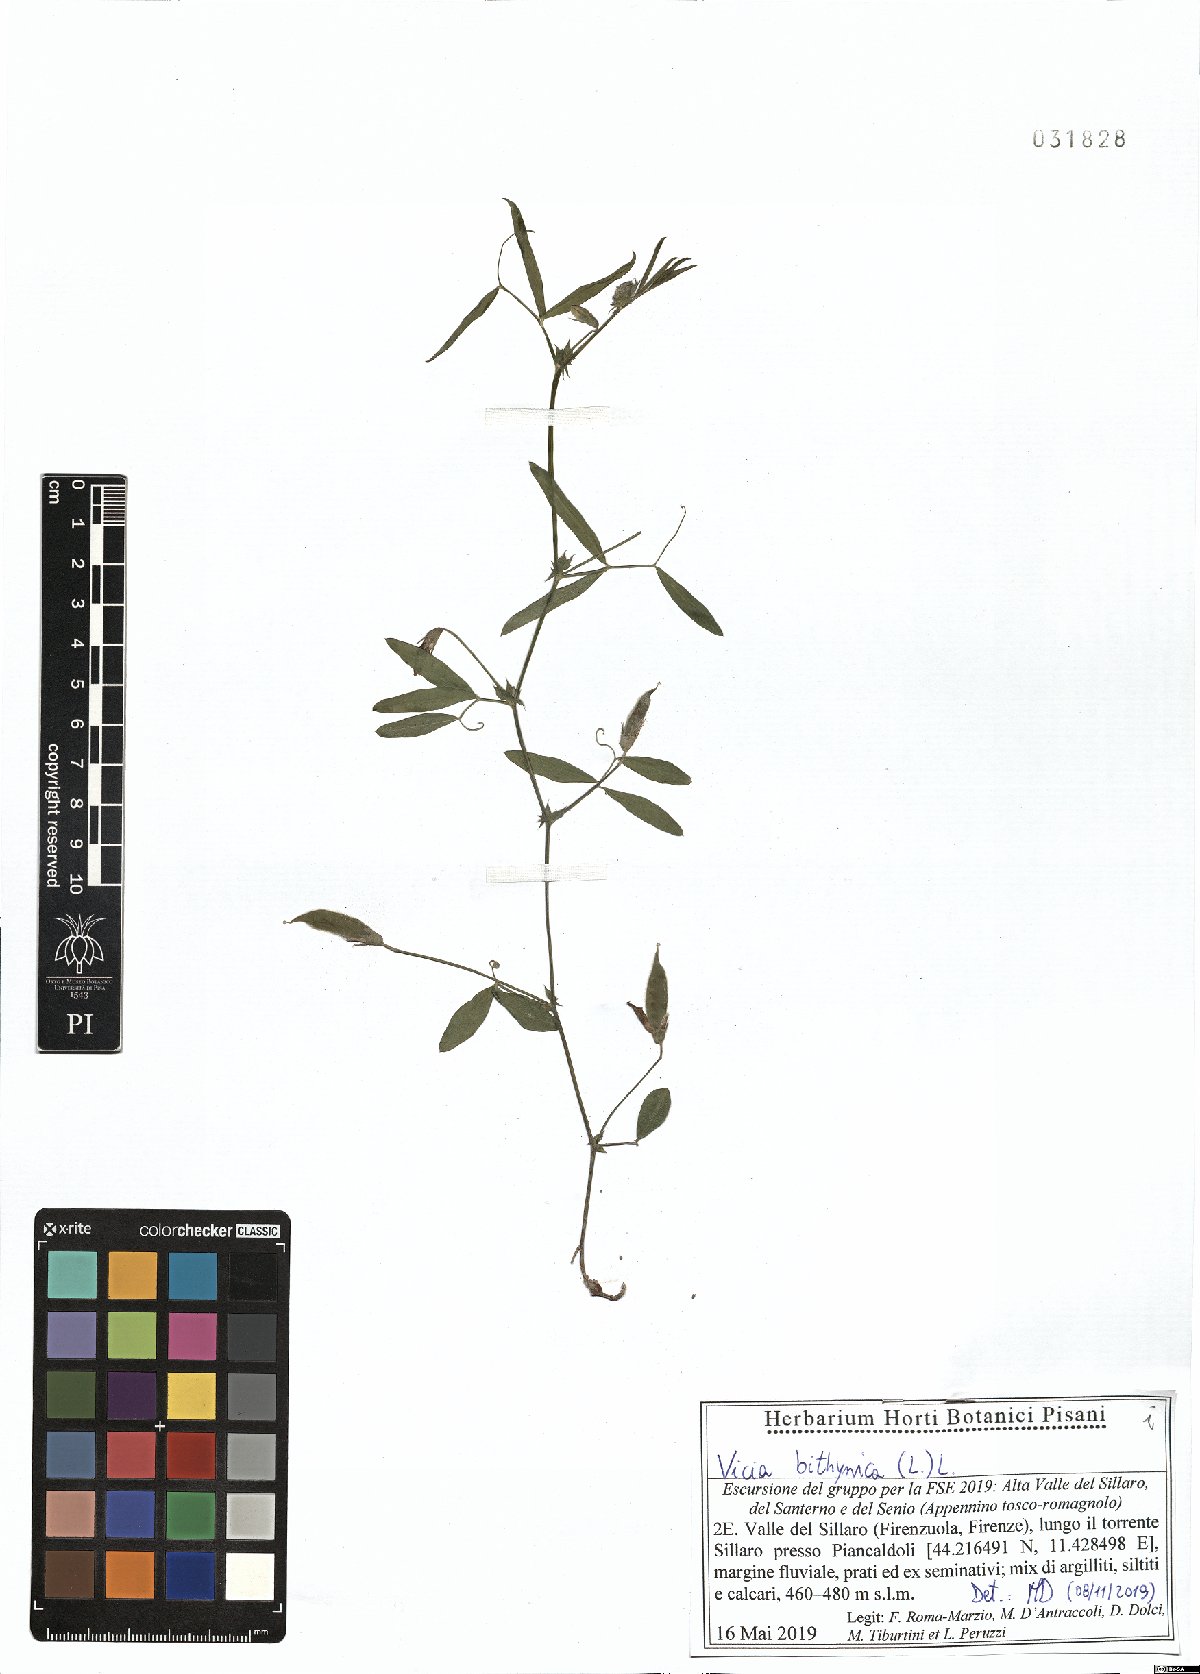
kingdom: Plantae
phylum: Tracheophyta
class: Magnoliopsida
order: Fabales
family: Fabaceae
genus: Vicia
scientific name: Vicia bithynica
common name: Bithynian vetch
